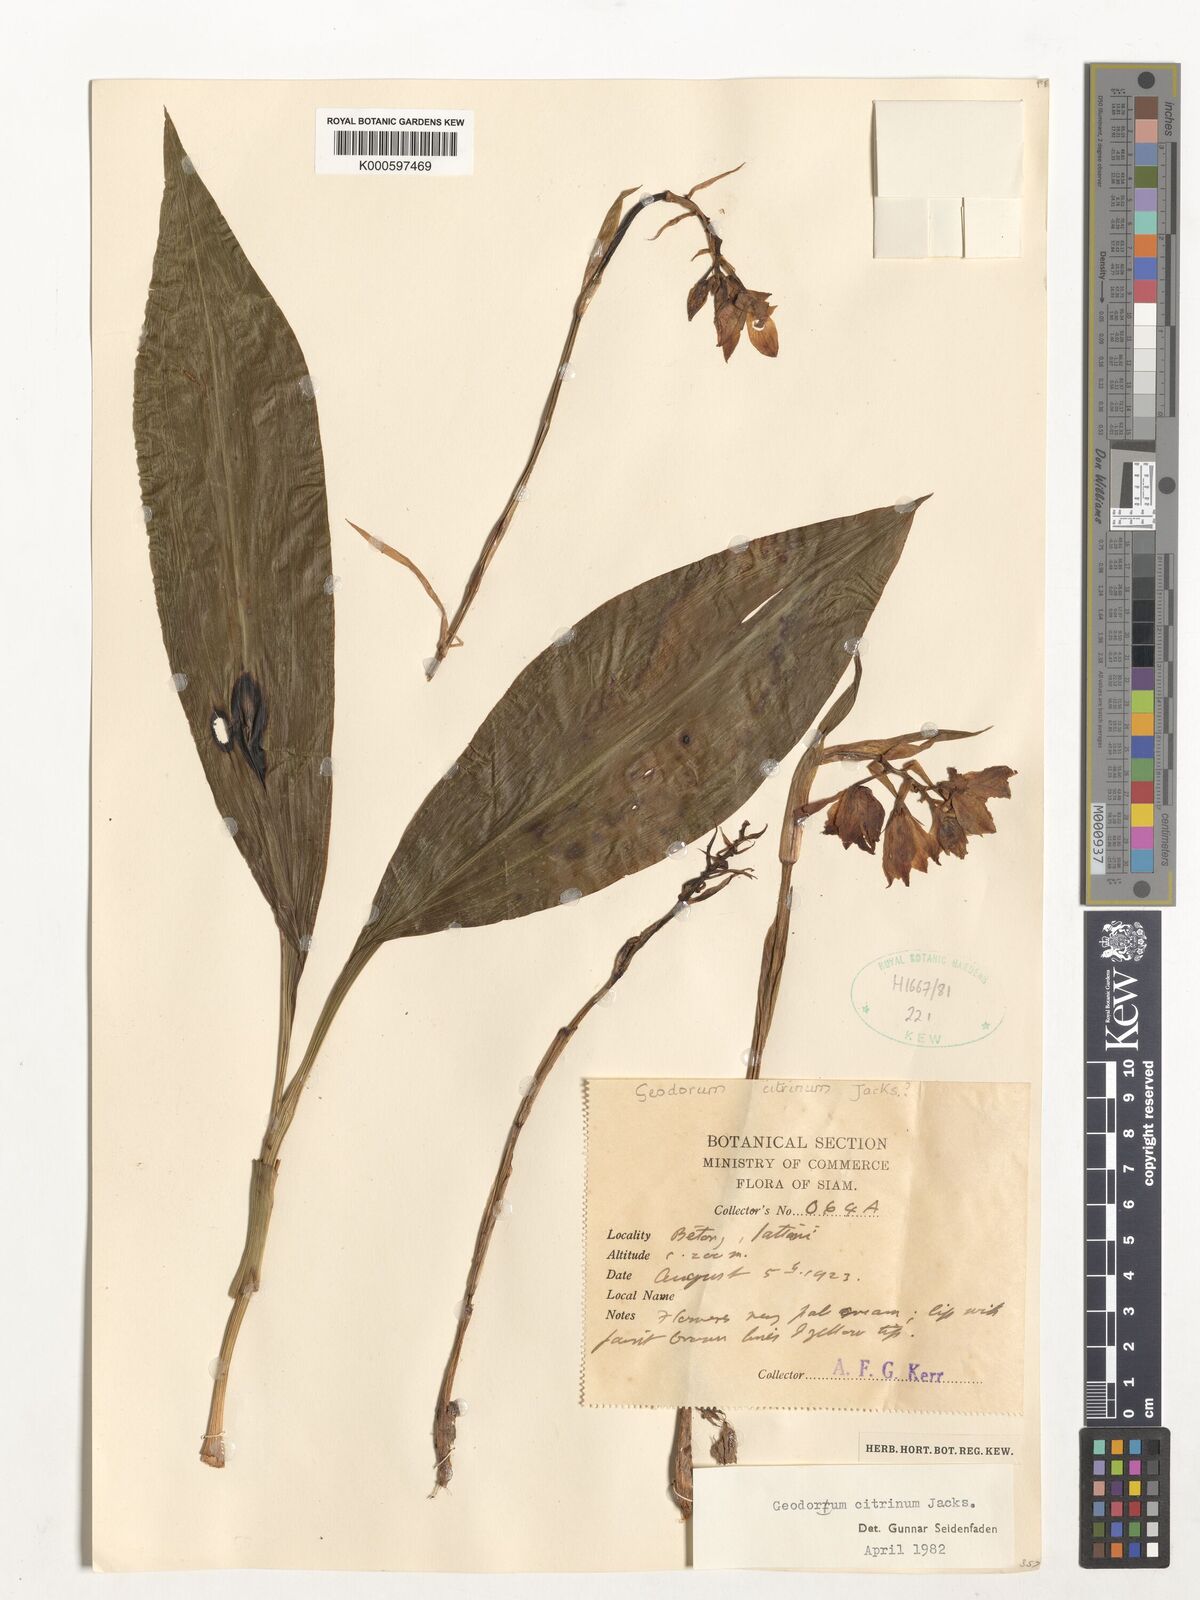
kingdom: Plantae
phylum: Tracheophyta
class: Liliopsida
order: Asparagales
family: Orchidaceae
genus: Geodorum
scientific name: Geodorum
